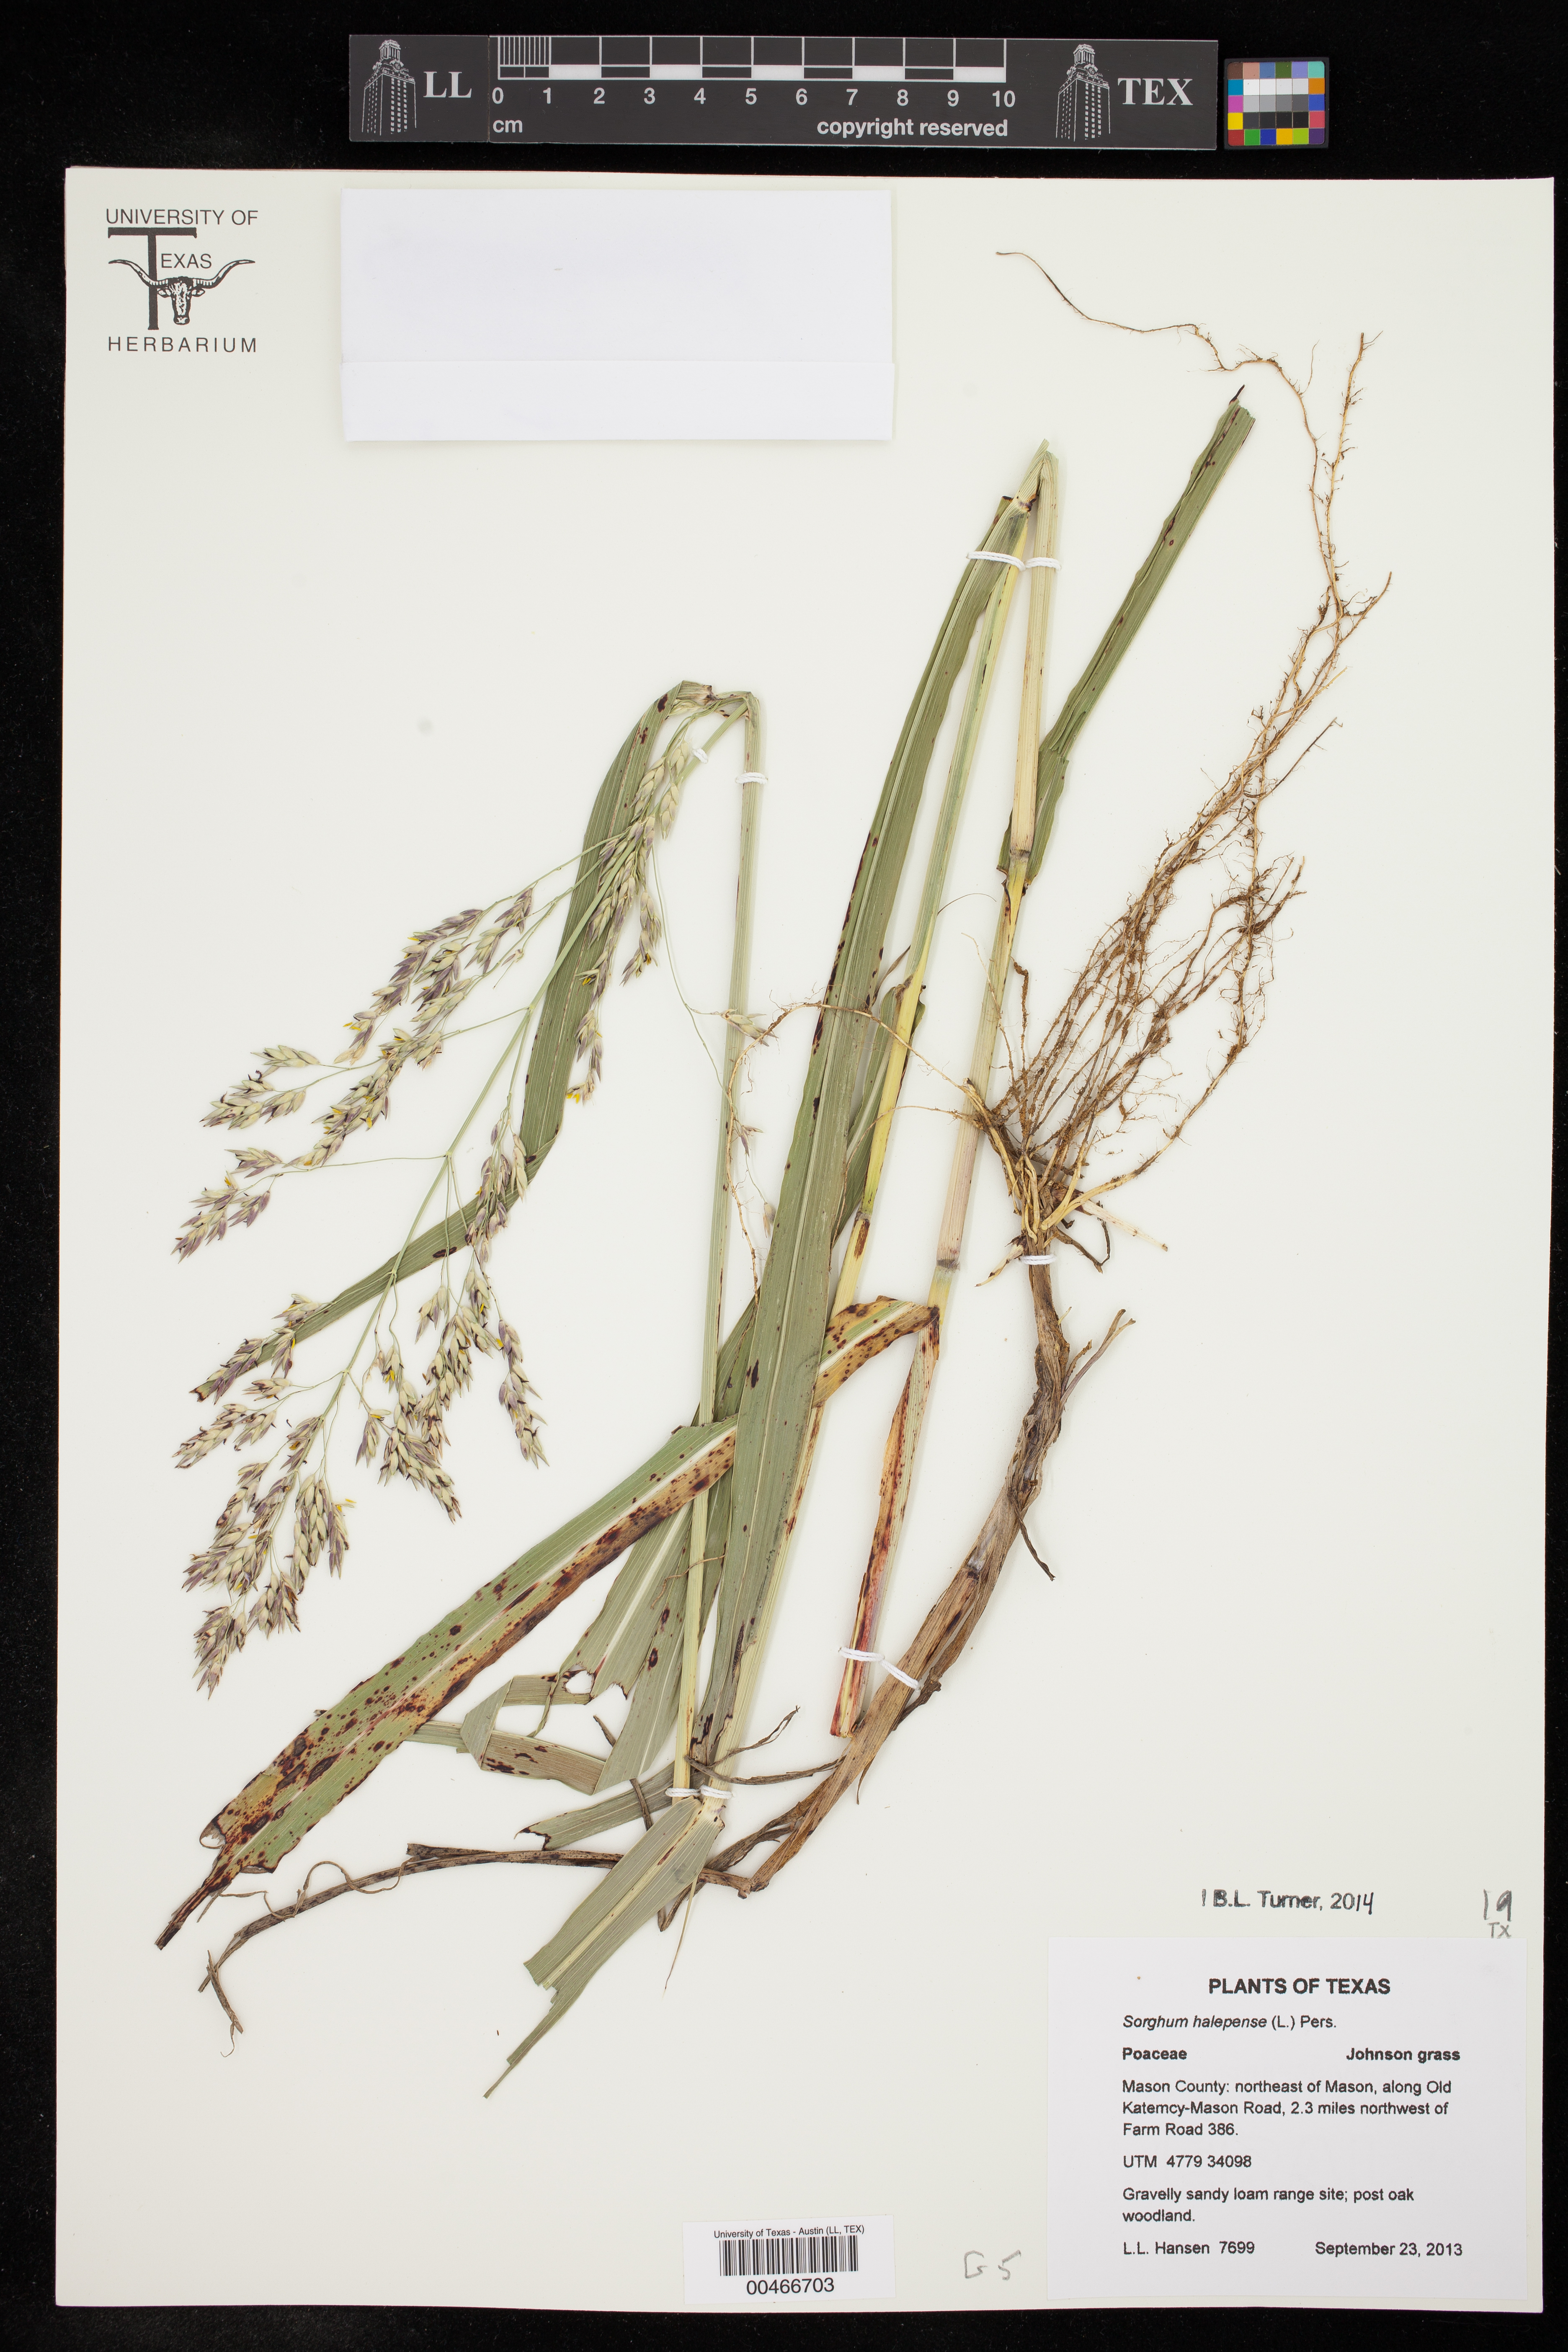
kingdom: Plantae
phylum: Tracheophyta
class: Liliopsida
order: Poales
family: Poaceae
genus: Sorghum
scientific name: Sorghum halepense
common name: Johnson-grass
